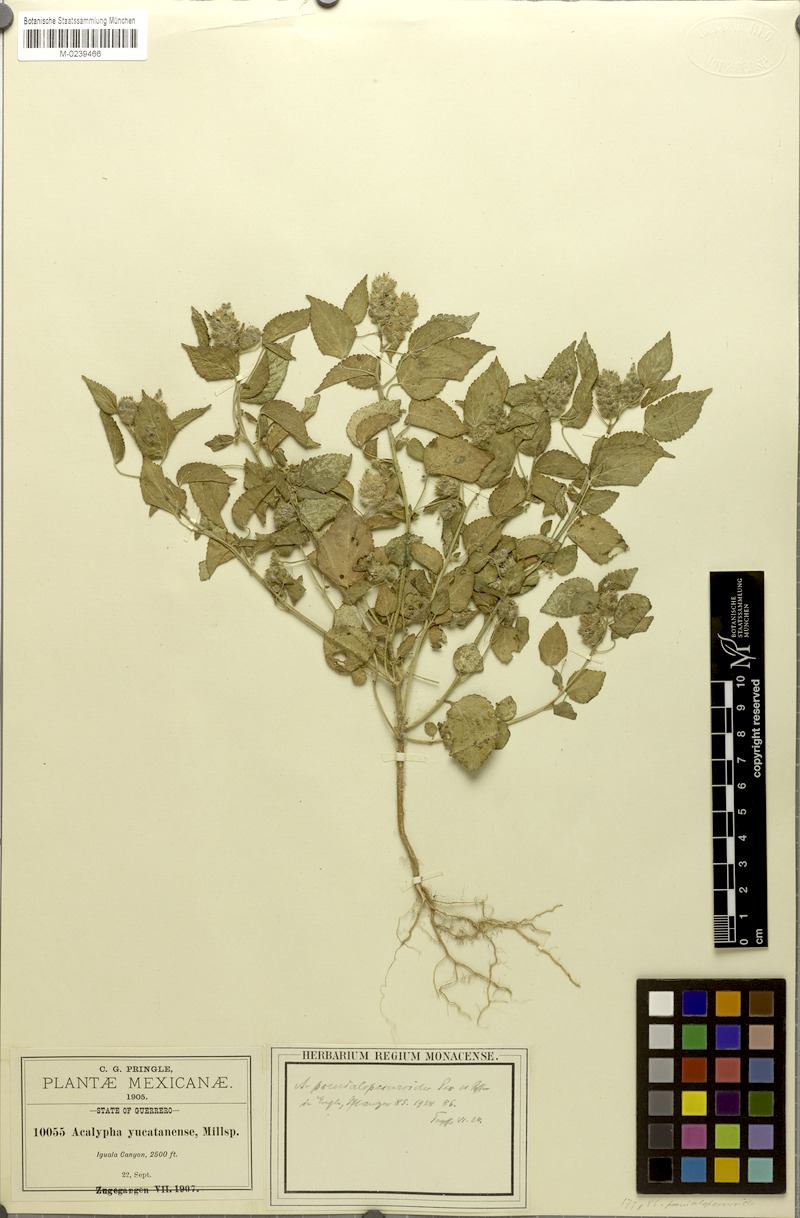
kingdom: Plantae
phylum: Tracheophyta
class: Magnoliopsida
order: Malpighiales
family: Euphorbiaceae
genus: Acalypha
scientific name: Acalypha pseudalopecuroides
